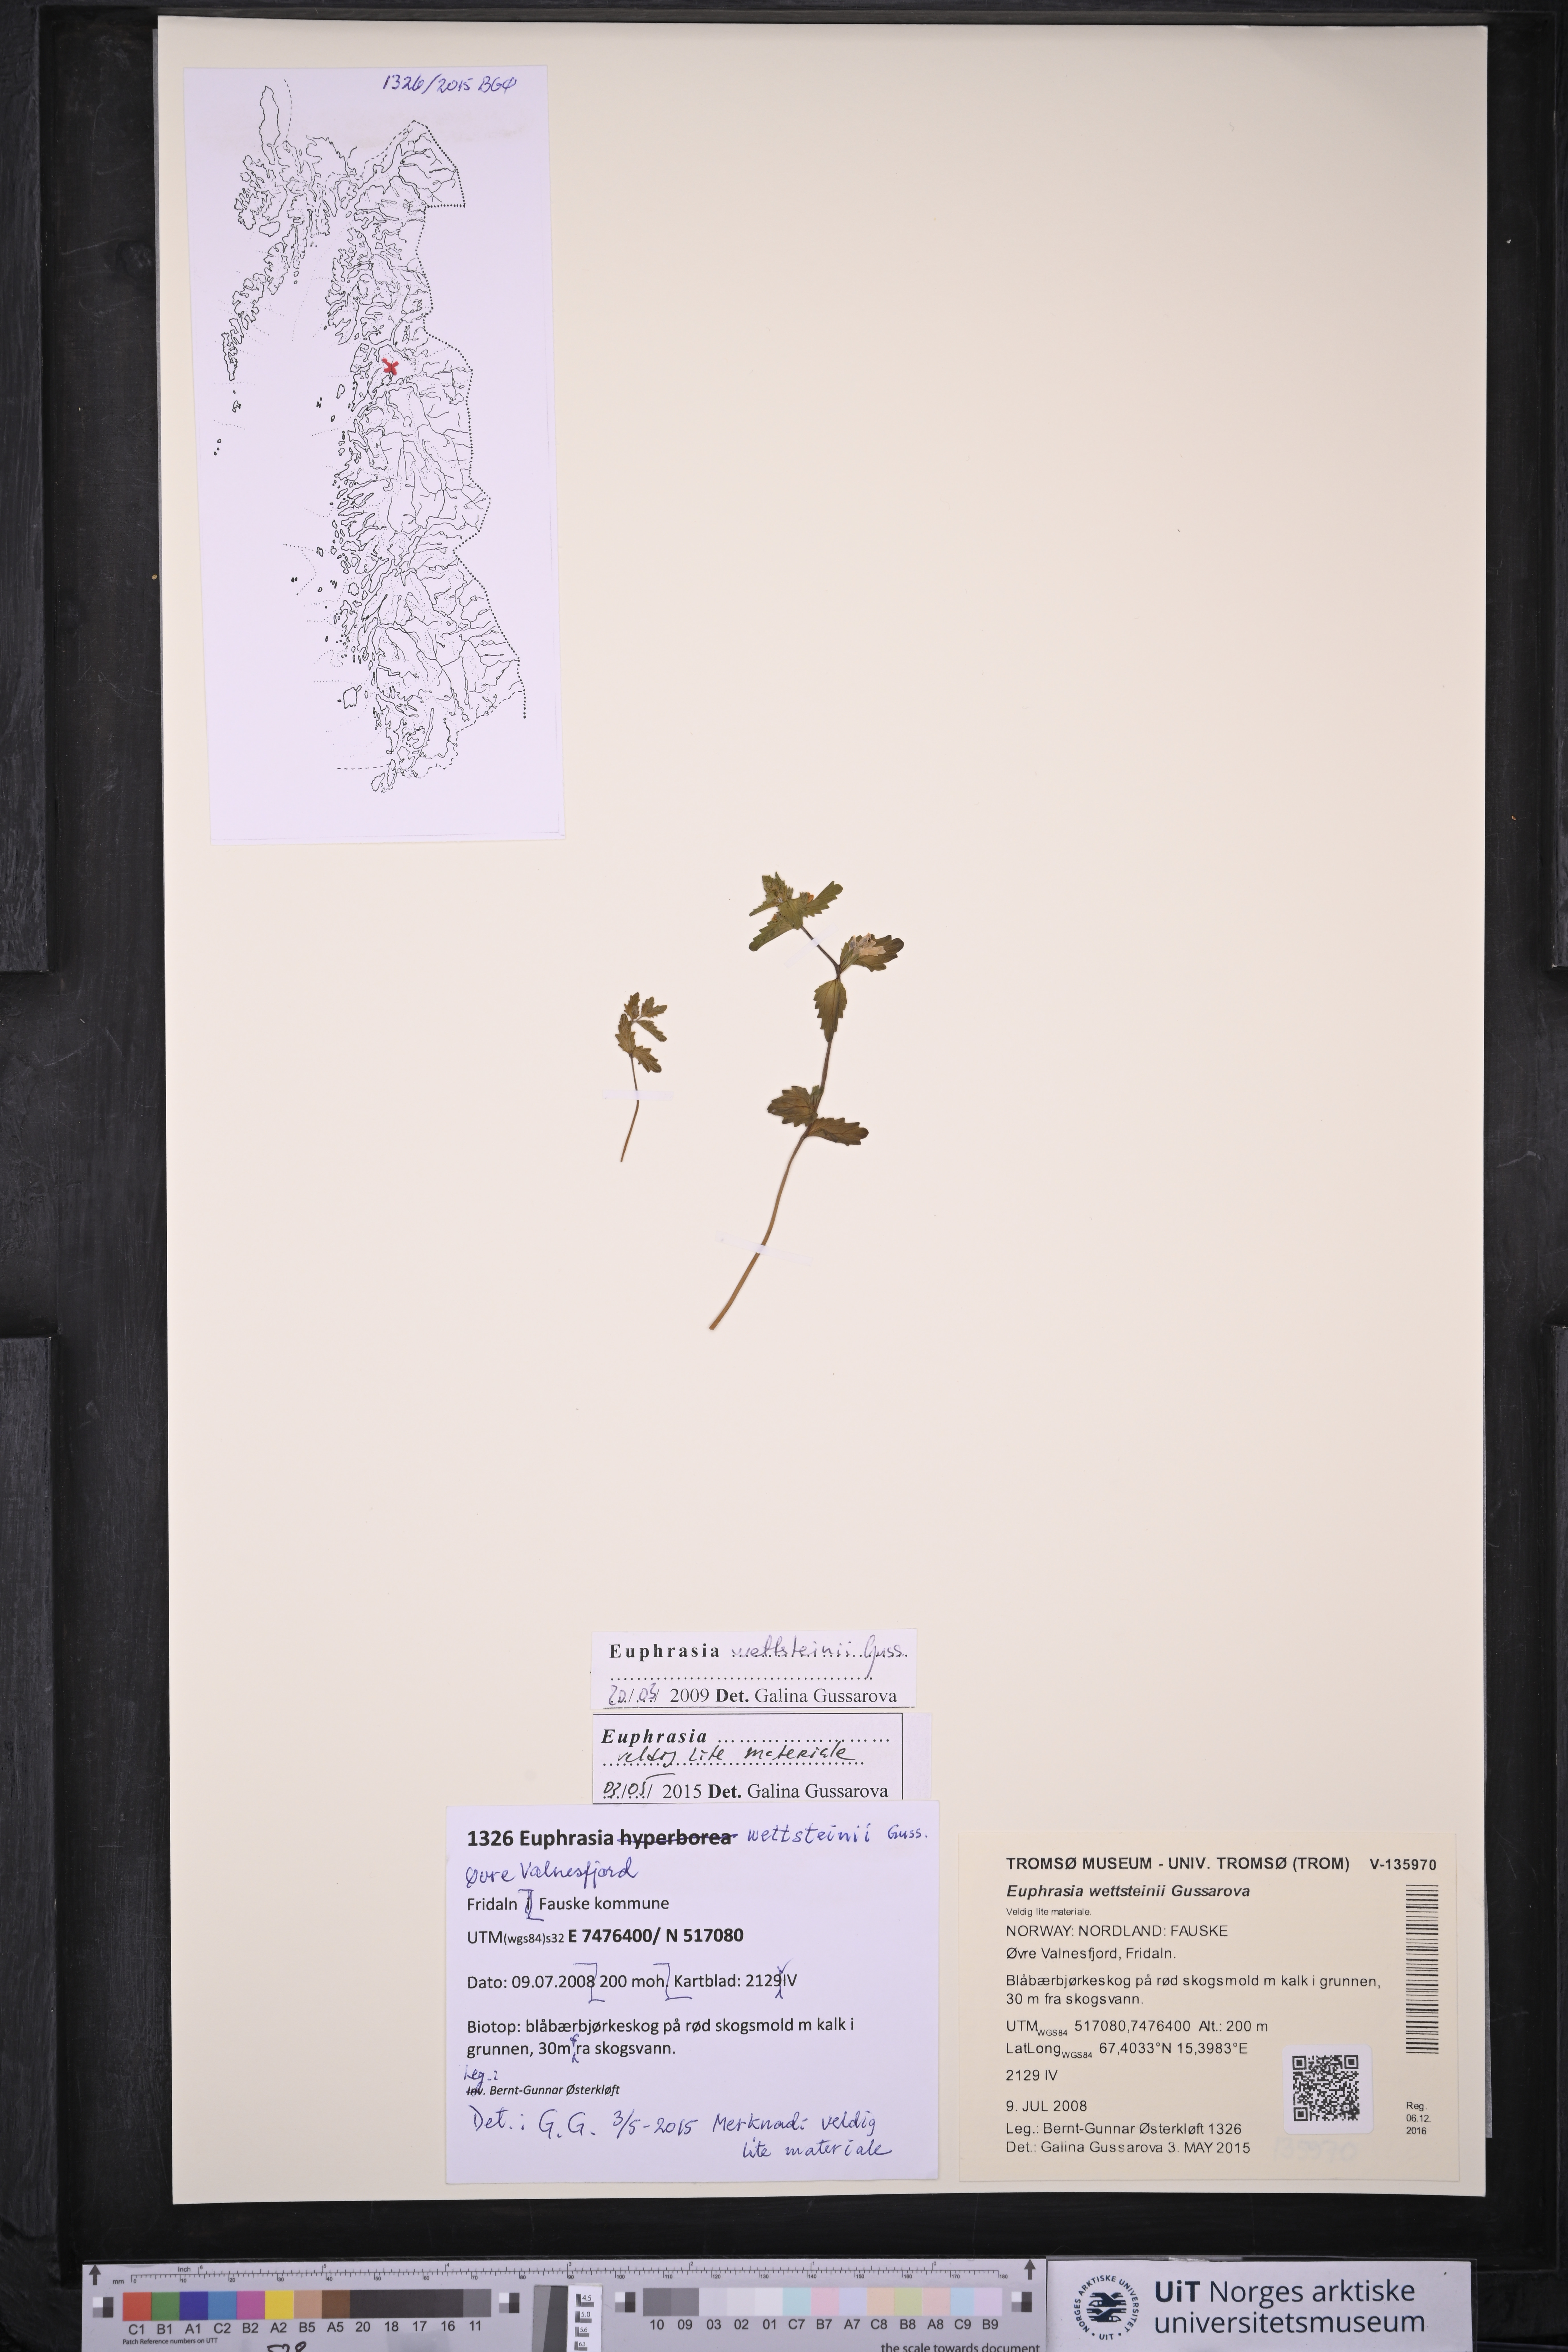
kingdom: Plantae
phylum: Tracheophyta
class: Magnoliopsida
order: Lamiales
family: Orobanchaceae
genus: Euphrasia
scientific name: Euphrasia wettsteinii
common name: Wettstein's eyebright
